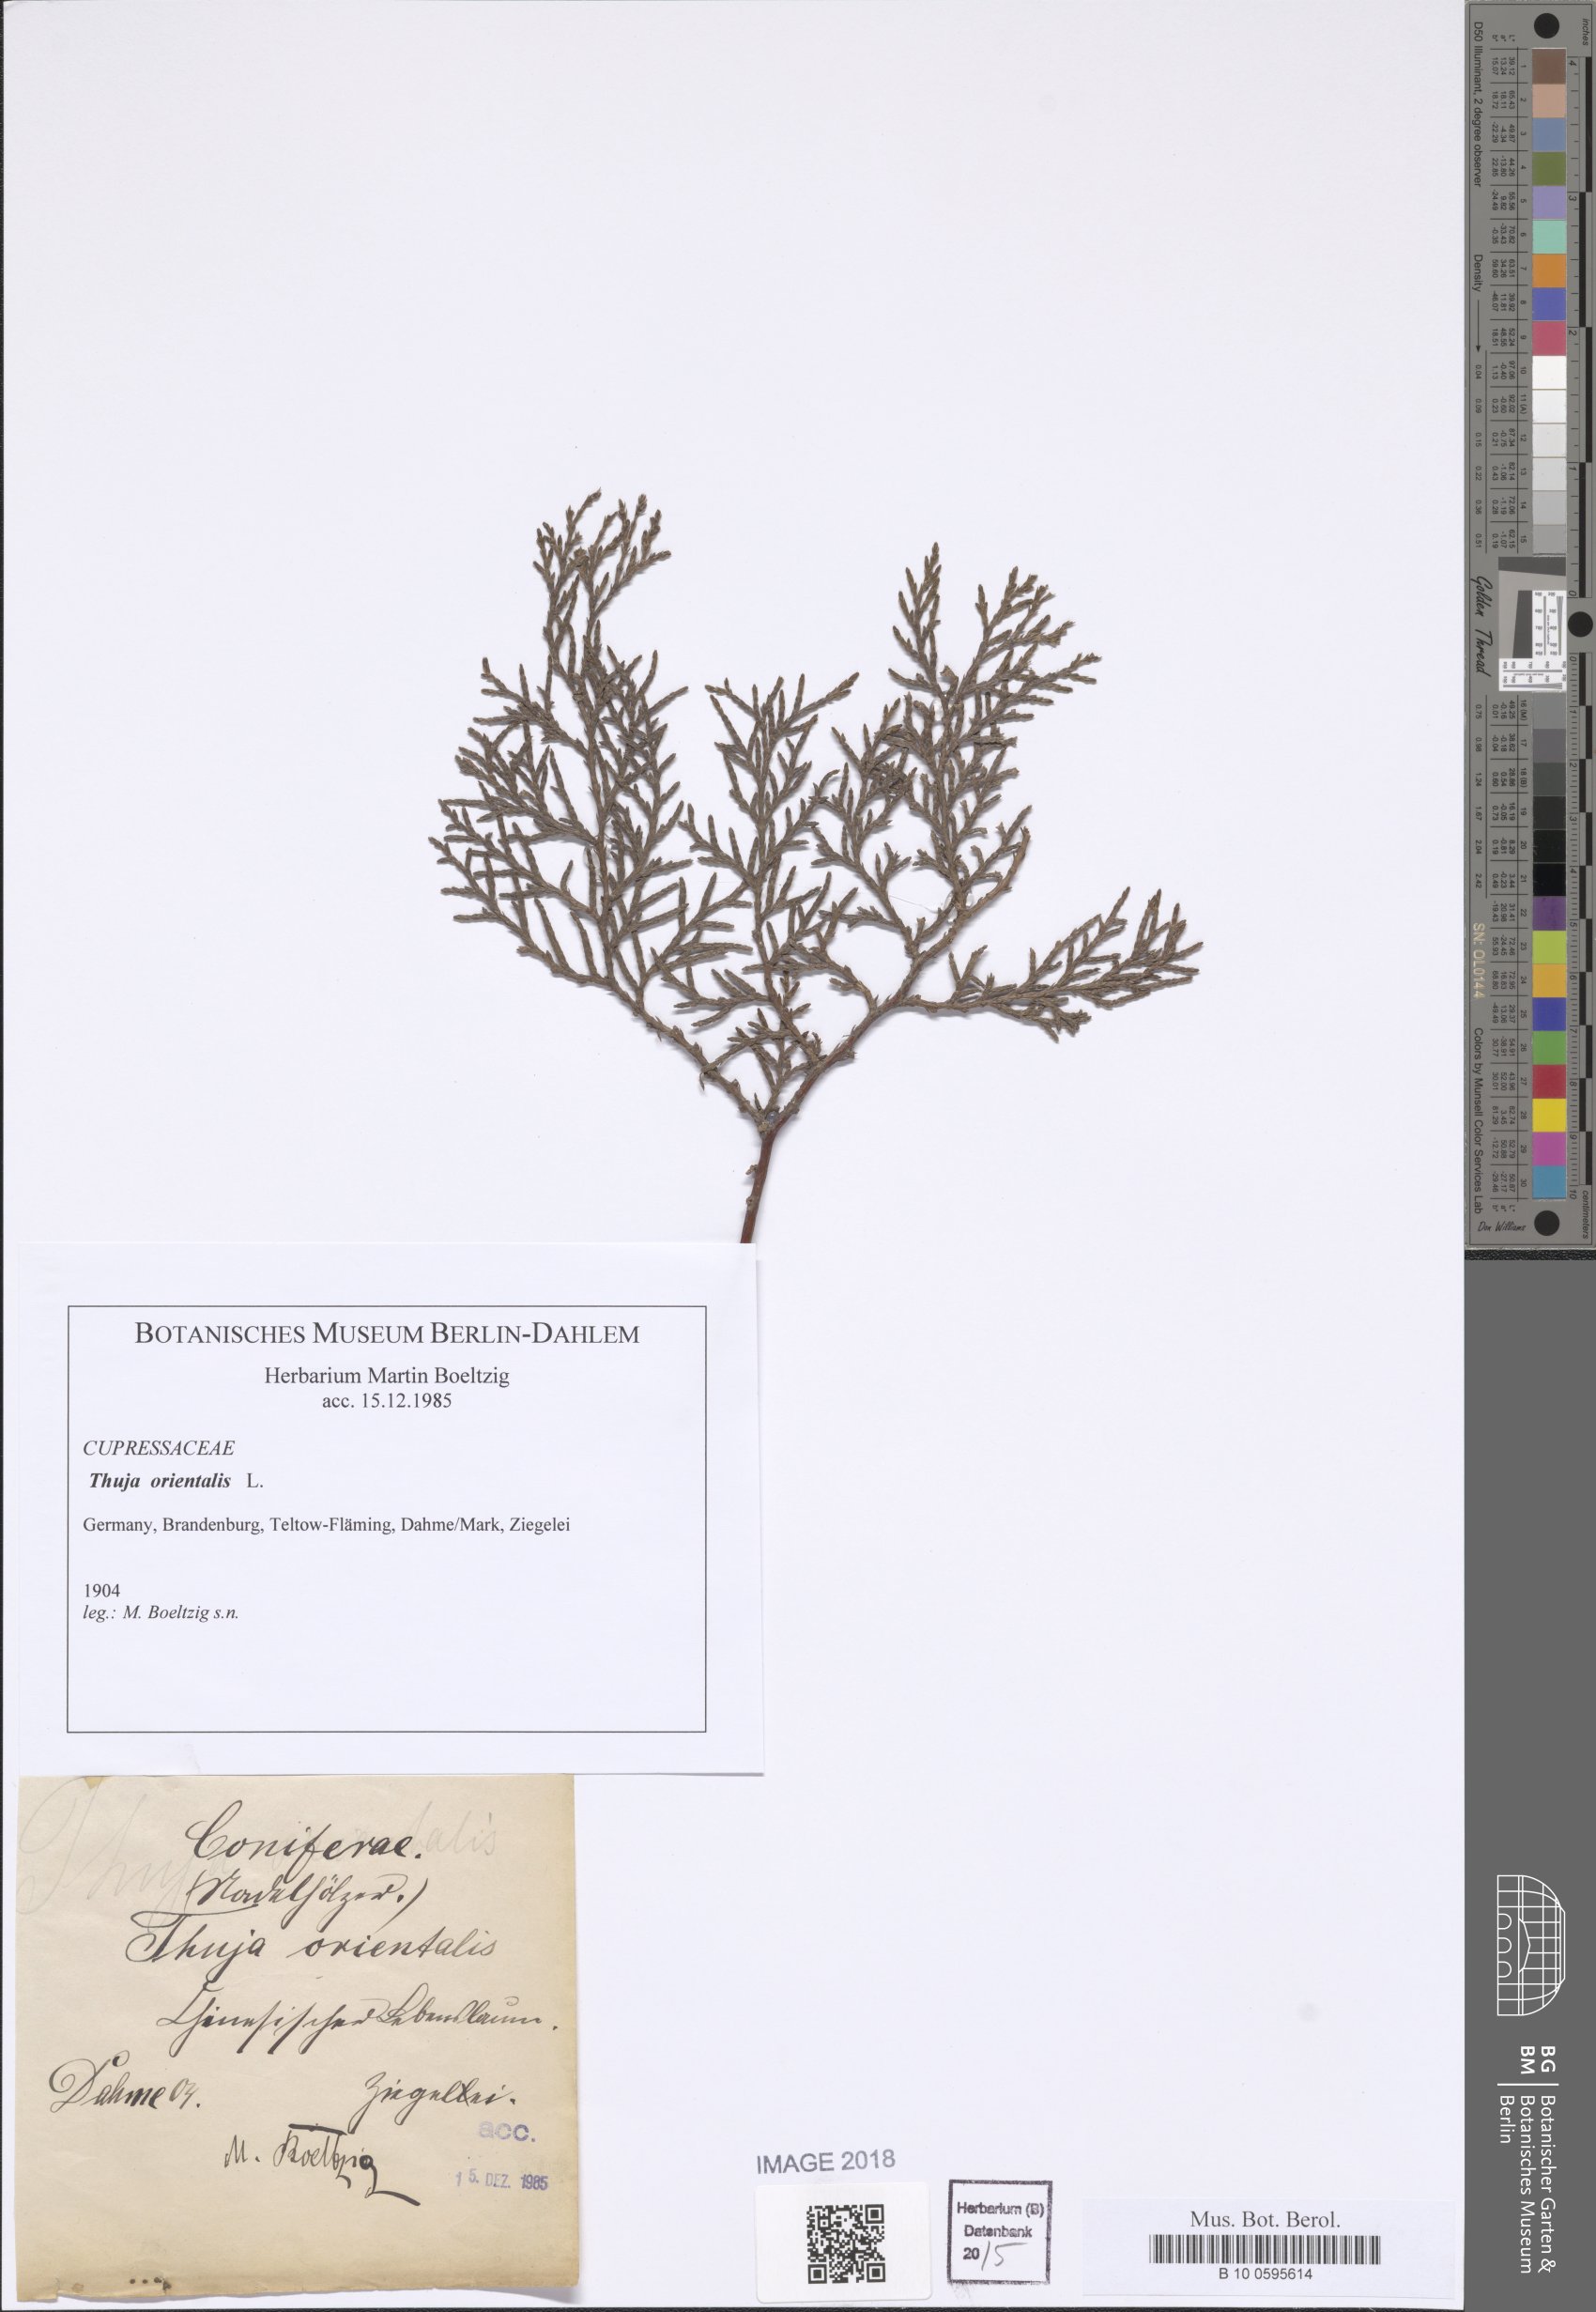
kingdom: Plantae
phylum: Tracheophyta
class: Pinopsida
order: Pinales
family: Cupressaceae
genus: Platycladus
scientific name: Platycladus orientalis
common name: Chinese thuja
